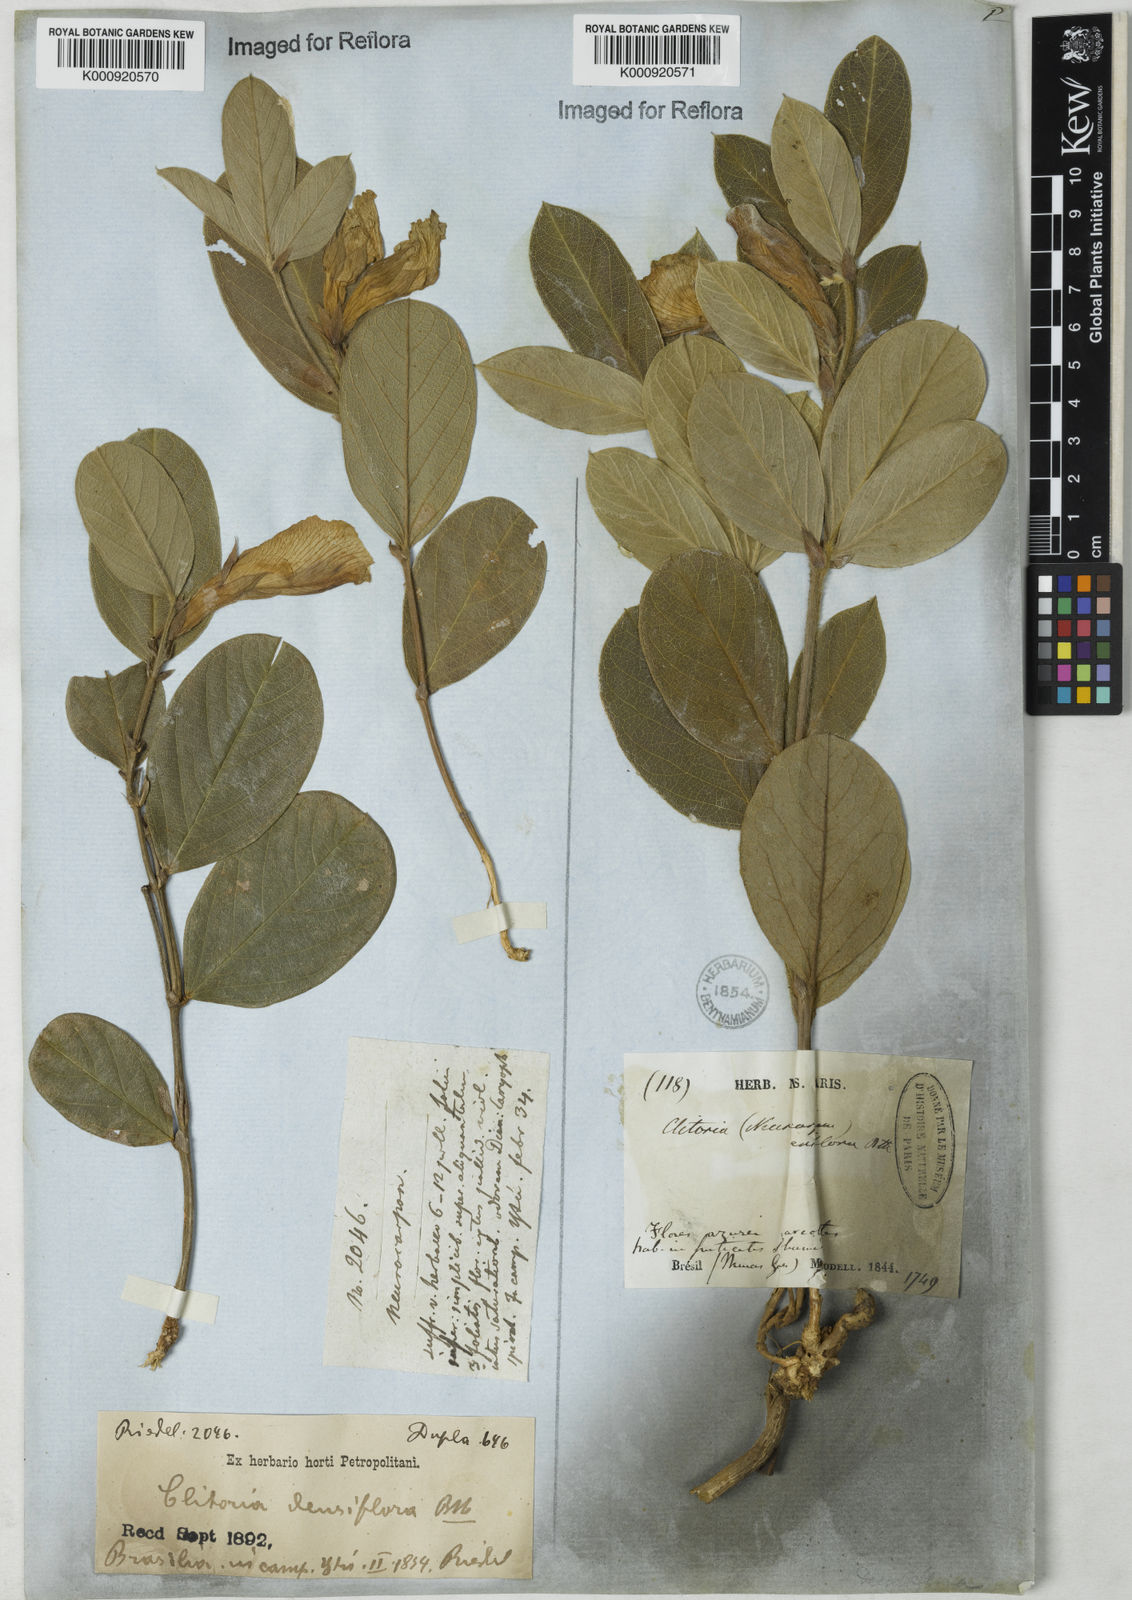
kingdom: Plantae
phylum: Tracheophyta
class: Magnoliopsida
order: Fabales
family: Fabaceae
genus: Clitoria
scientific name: Clitoria
